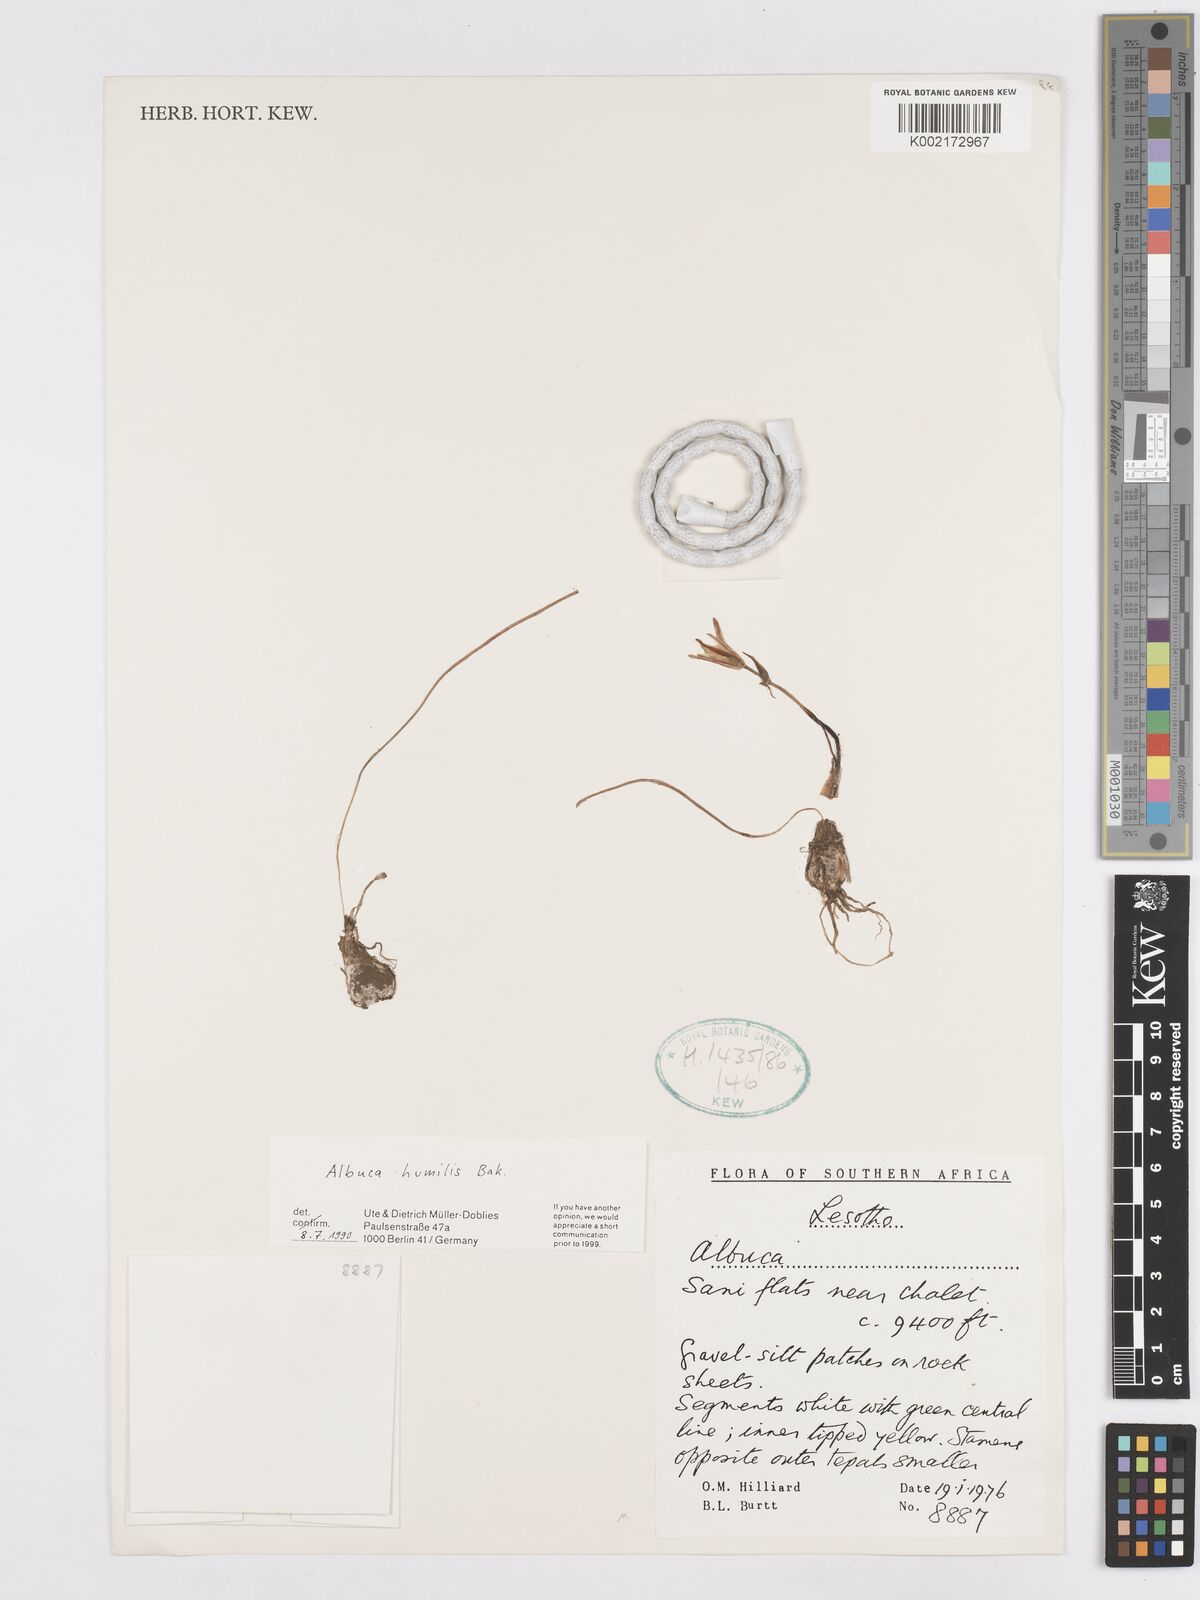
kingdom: Plantae
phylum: Tracheophyta
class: Liliopsida
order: Asparagales
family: Asparagaceae
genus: Albuca
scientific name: Albuca humilis
